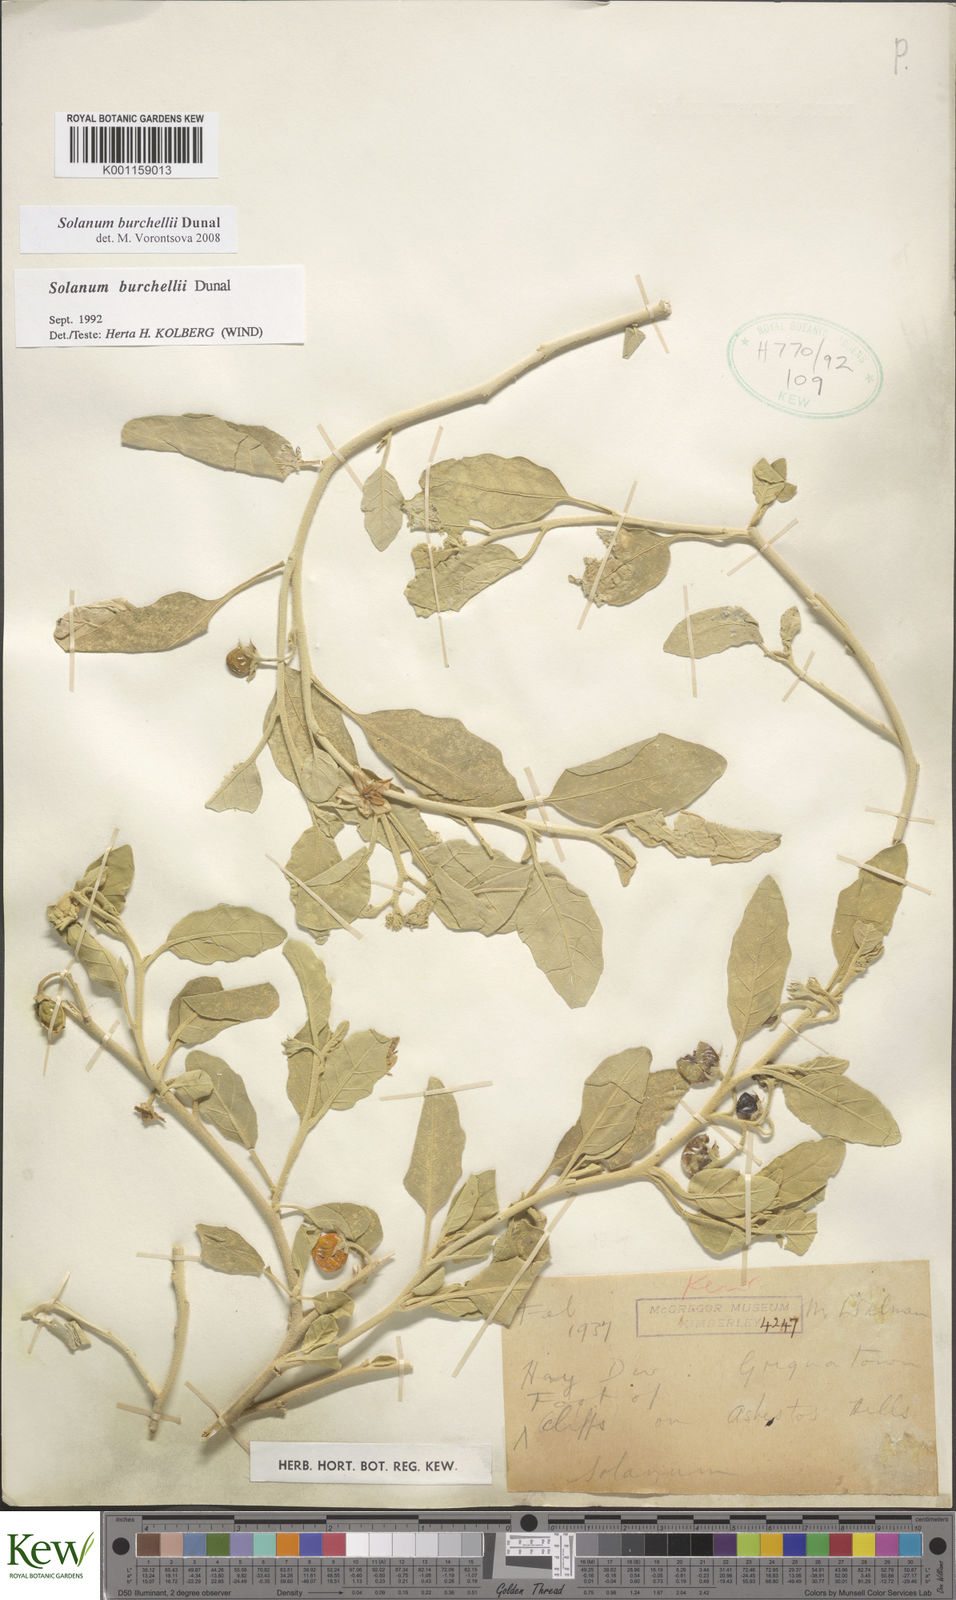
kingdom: Plantae
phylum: Tracheophyta
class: Magnoliopsida
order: Solanales
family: Solanaceae
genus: Solanum
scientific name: Solanum burchellii
